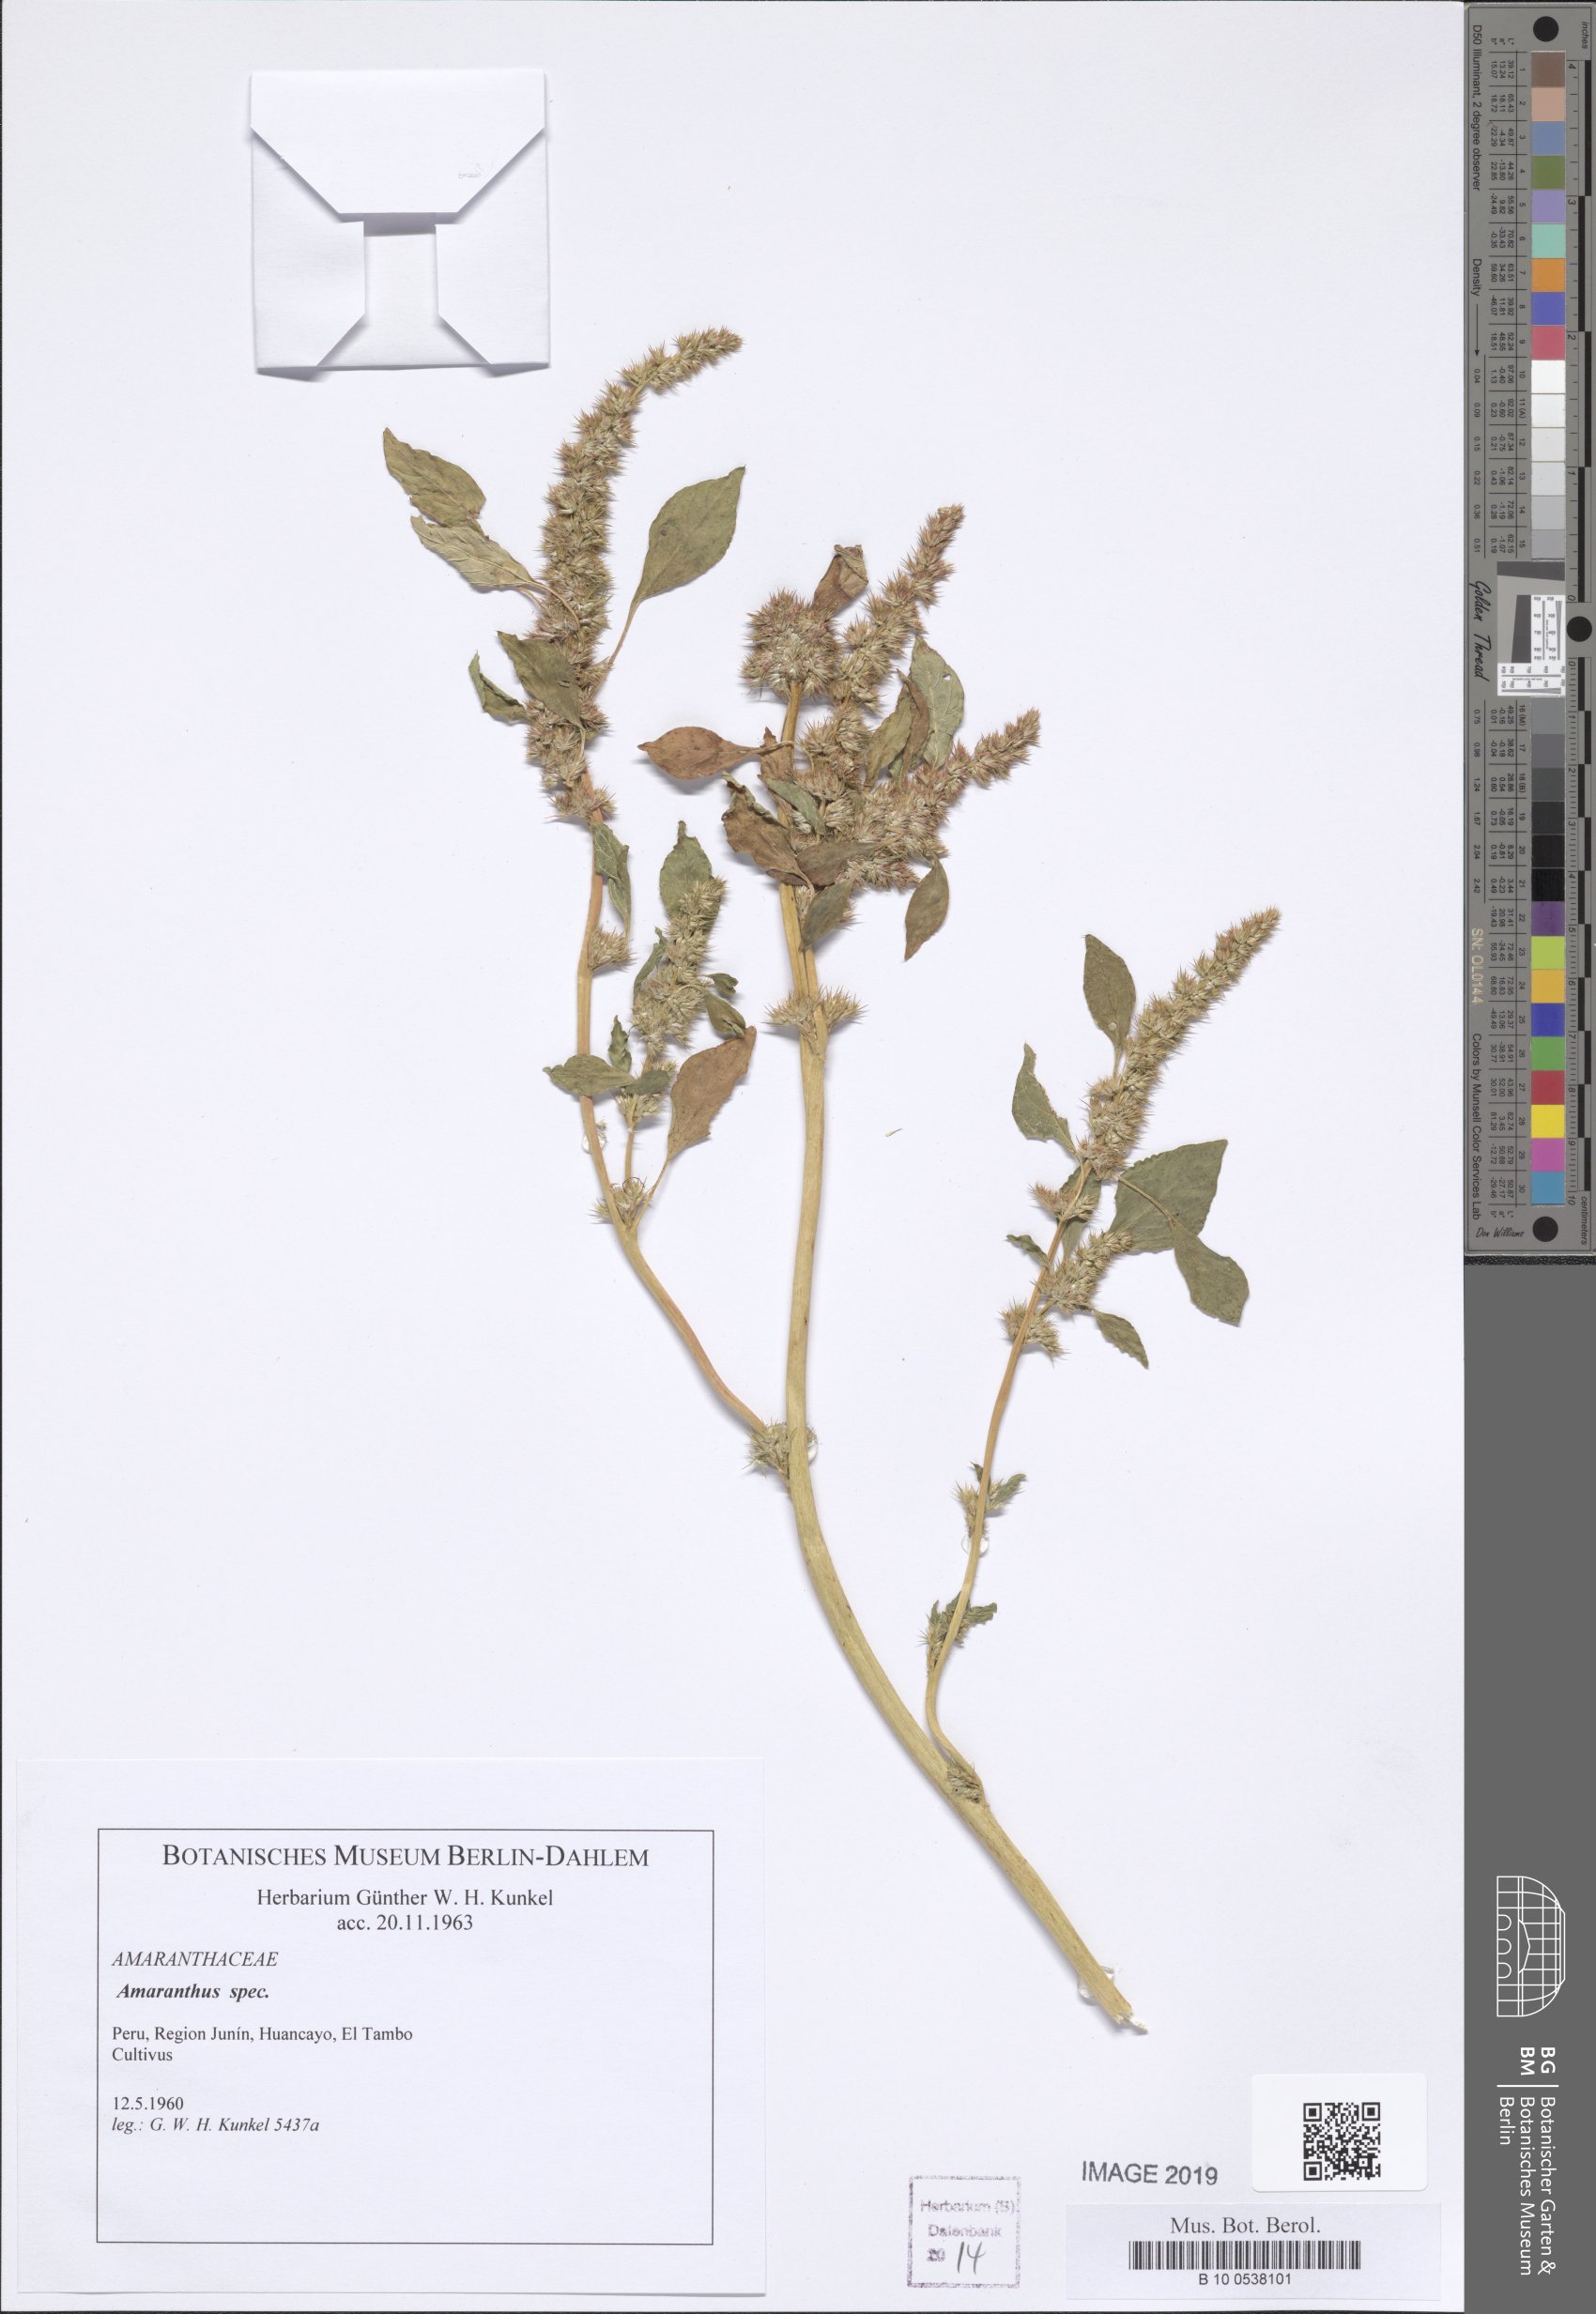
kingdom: Plantae
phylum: Tracheophyta
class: Magnoliopsida
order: Caryophyllales
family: Amaranthaceae
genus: Amaranthus
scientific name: Amaranthus
